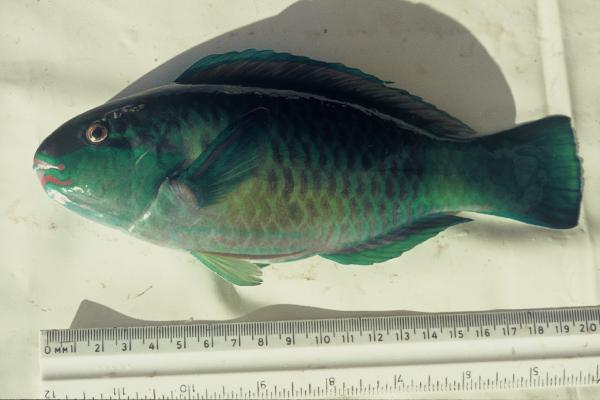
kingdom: Animalia
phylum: Chordata
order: Perciformes
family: Scaridae
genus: Chlorurus
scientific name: Chlorurus sordidus
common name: Bullethead parrotfish
